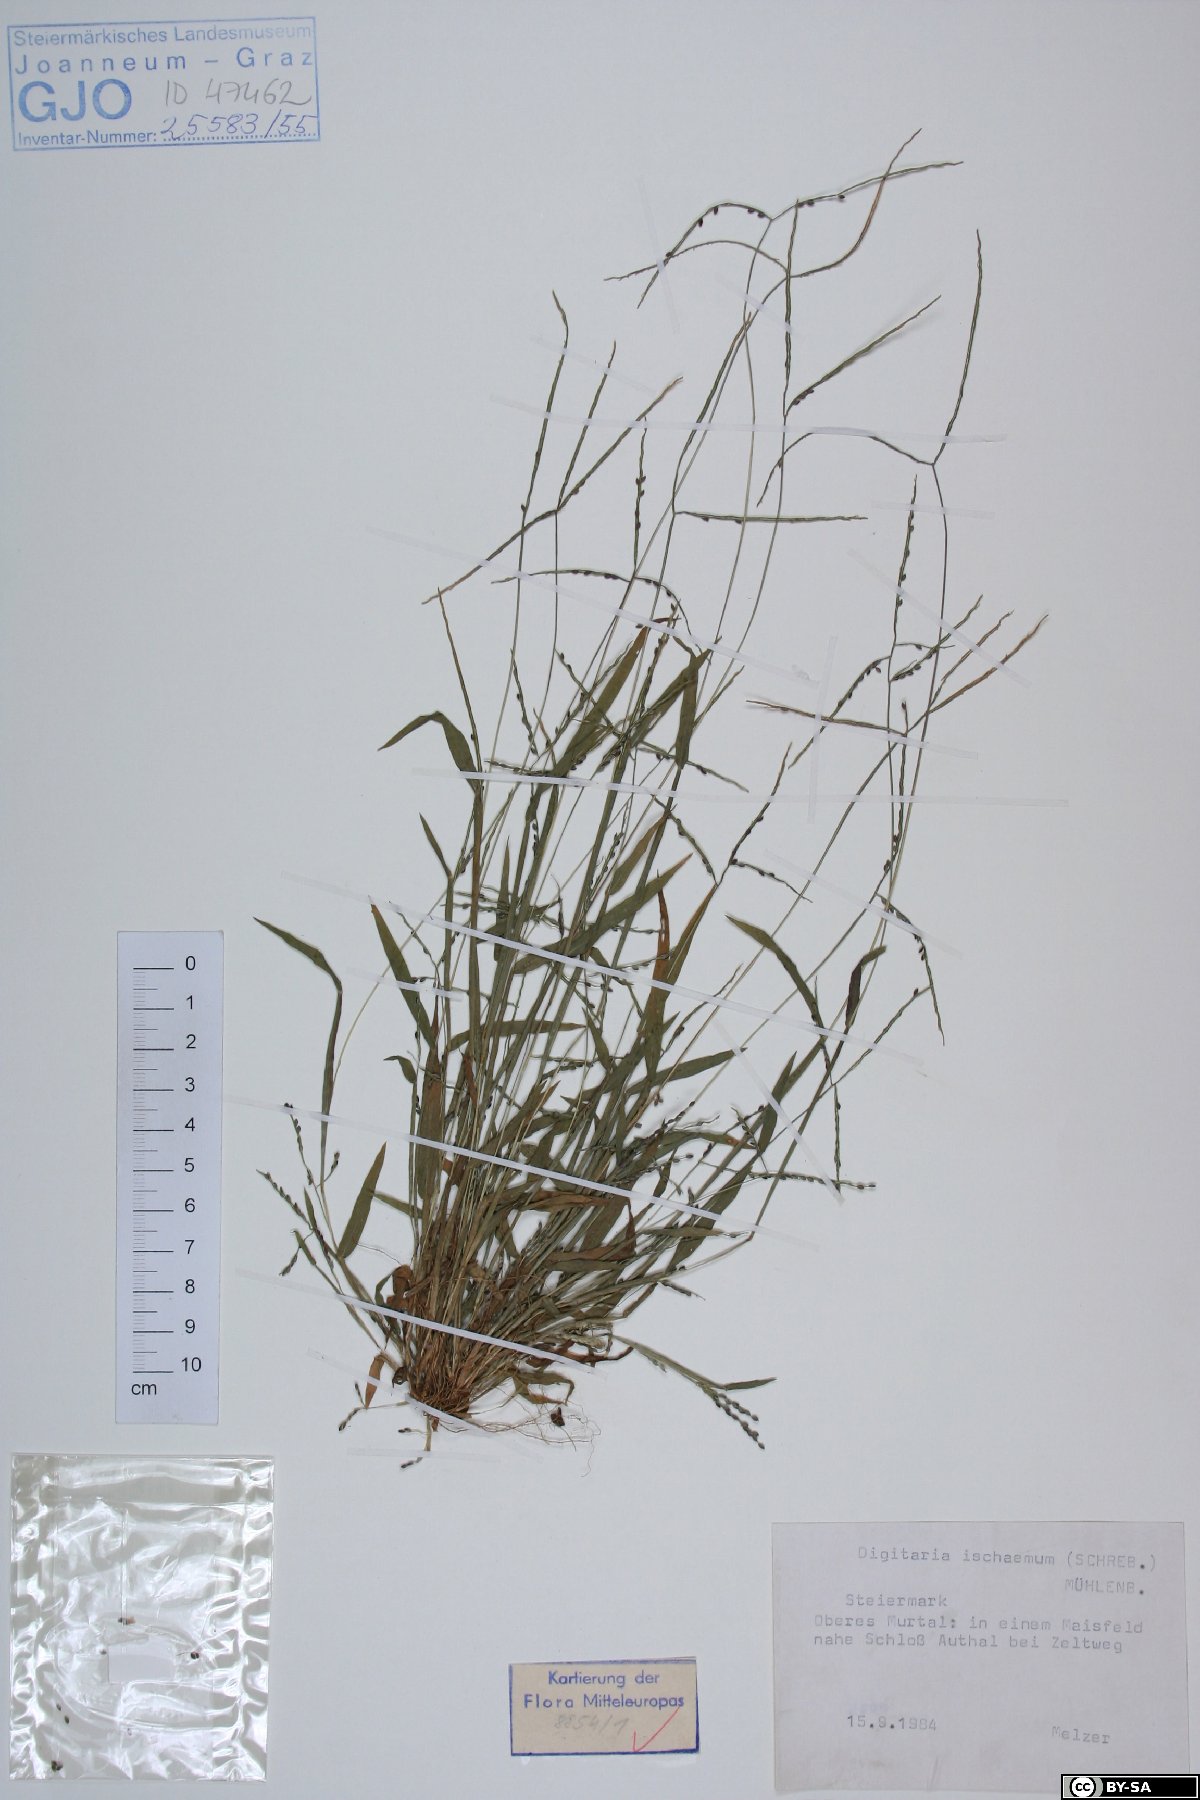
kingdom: Plantae
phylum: Tracheophyta
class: Liliopsida
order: Poales
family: Poaceae
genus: Digitaria
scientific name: Digitaria ischaemum
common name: Smooth crabgrass
